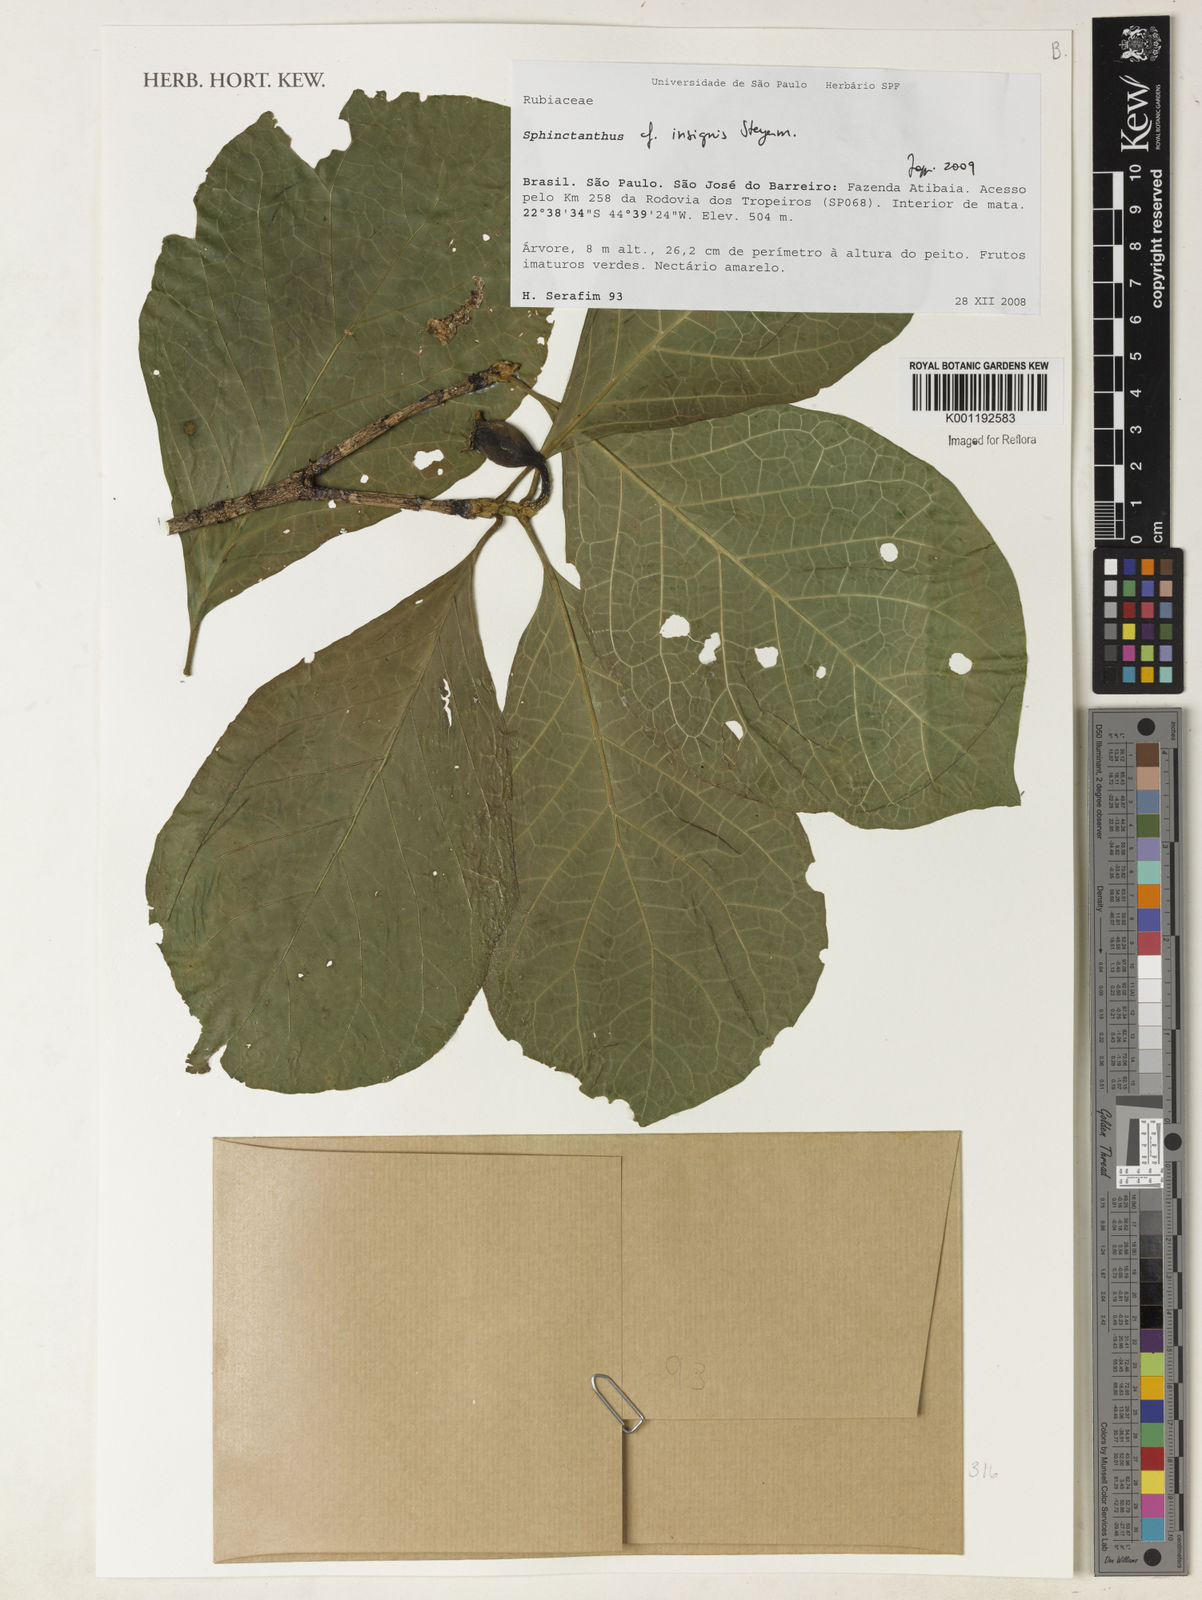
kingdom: Plantae
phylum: Tracheophyta
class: Magnoliopsida
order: Gentianales
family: Rubiaceae
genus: Sphinctanthus
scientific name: Sphinctanthus insignis
